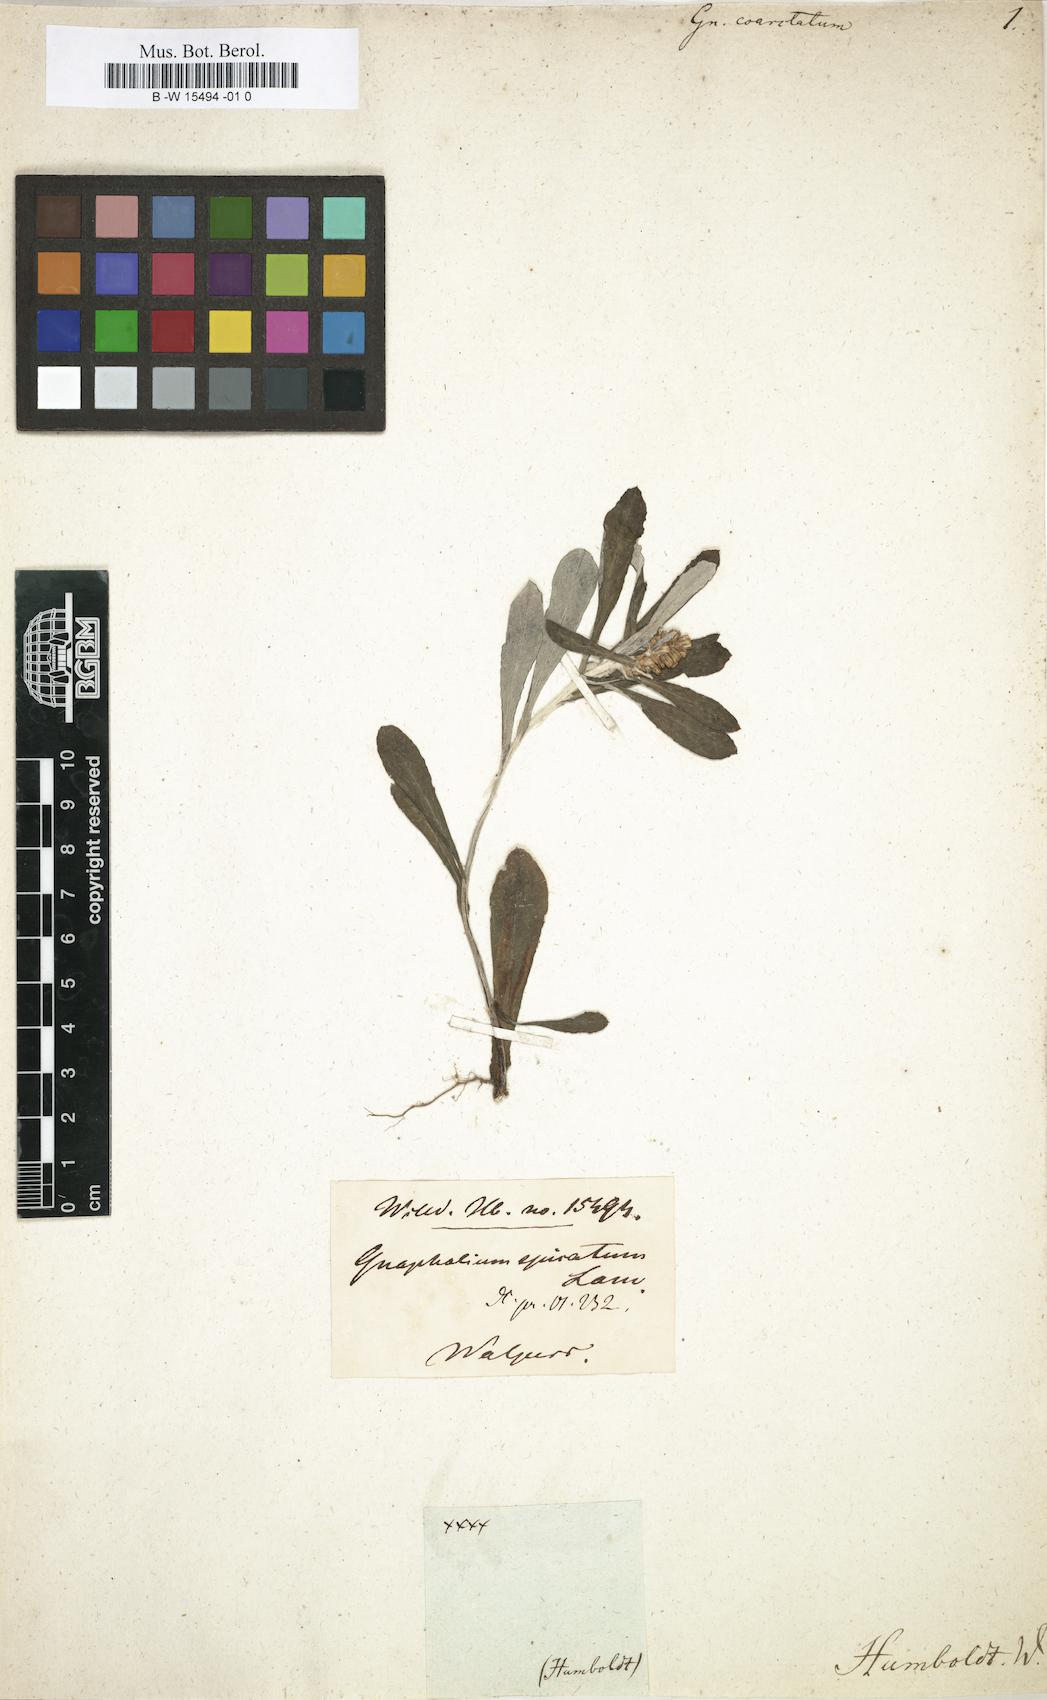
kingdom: Plantae
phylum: Tracheophyta
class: Magnoliopsida
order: Asterales
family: Asteraceae
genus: Gamochaeta
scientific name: Gamochaeta americana
